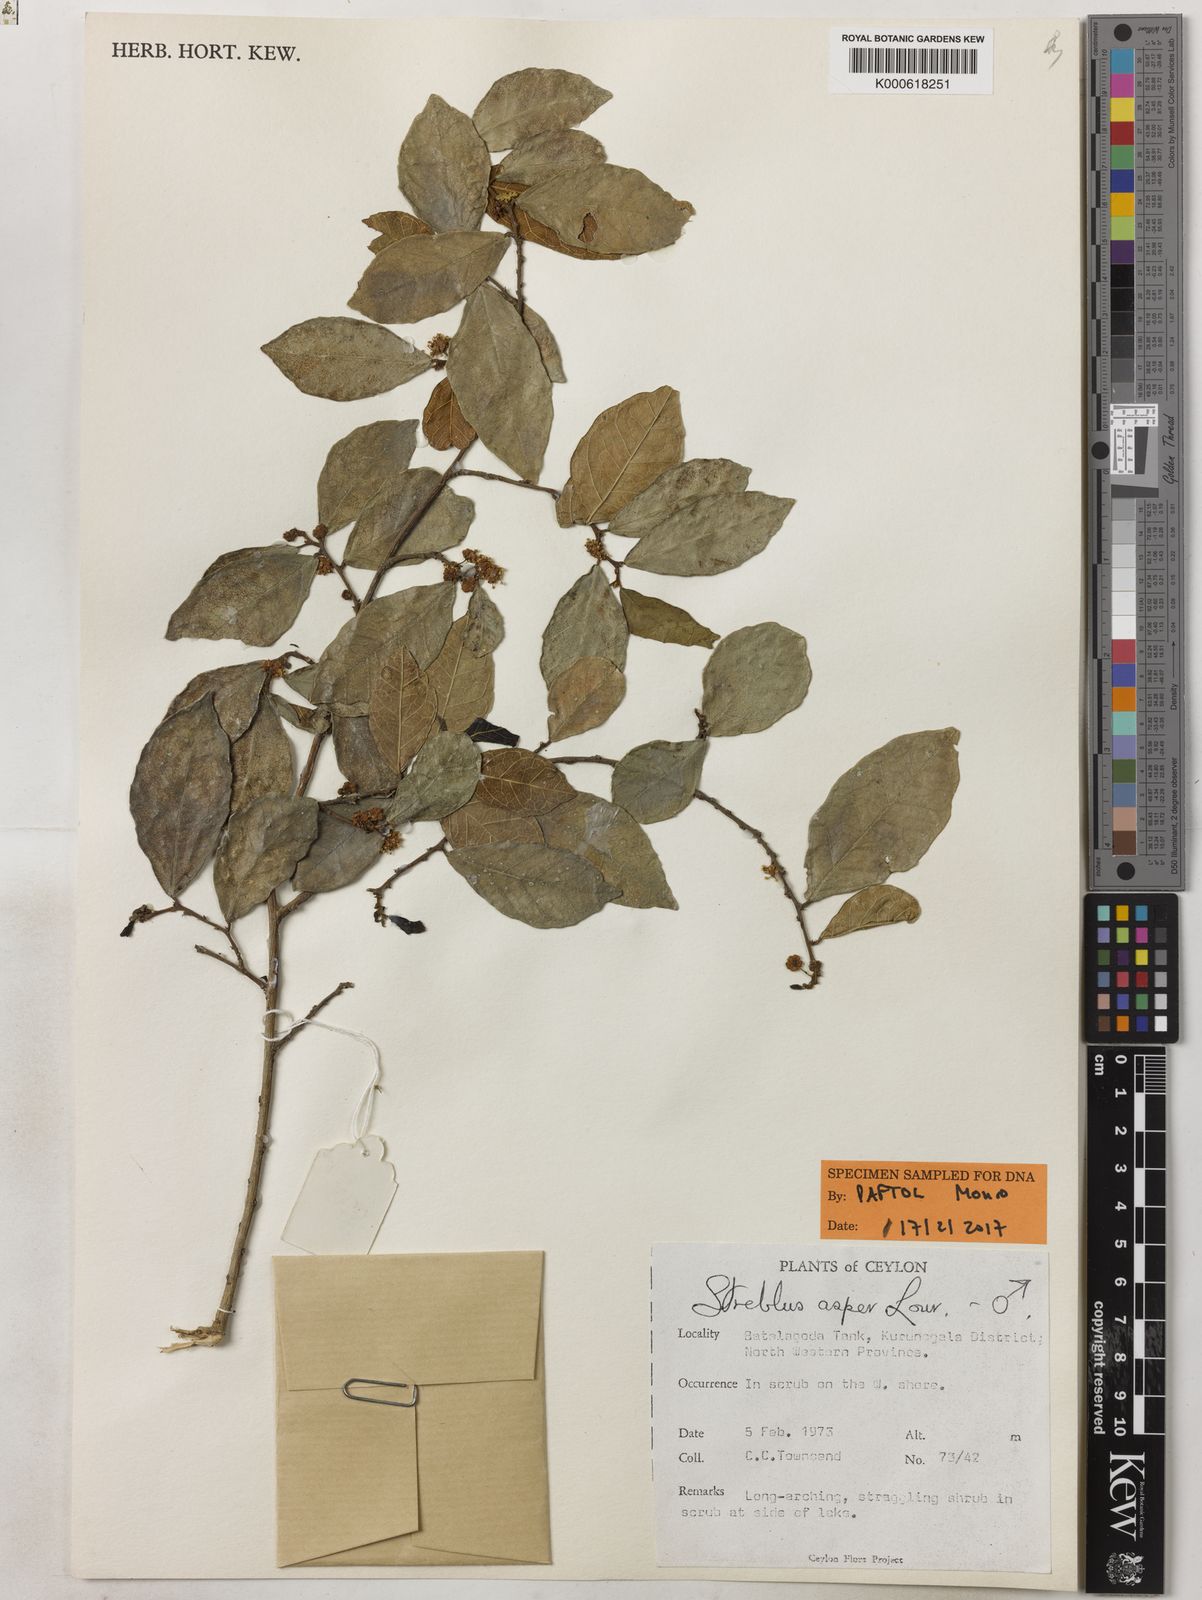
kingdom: Plantae
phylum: Tracheophyta
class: Magnoliopsida
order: Rosales
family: Moraceae
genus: Streblus
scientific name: Streblus asper
